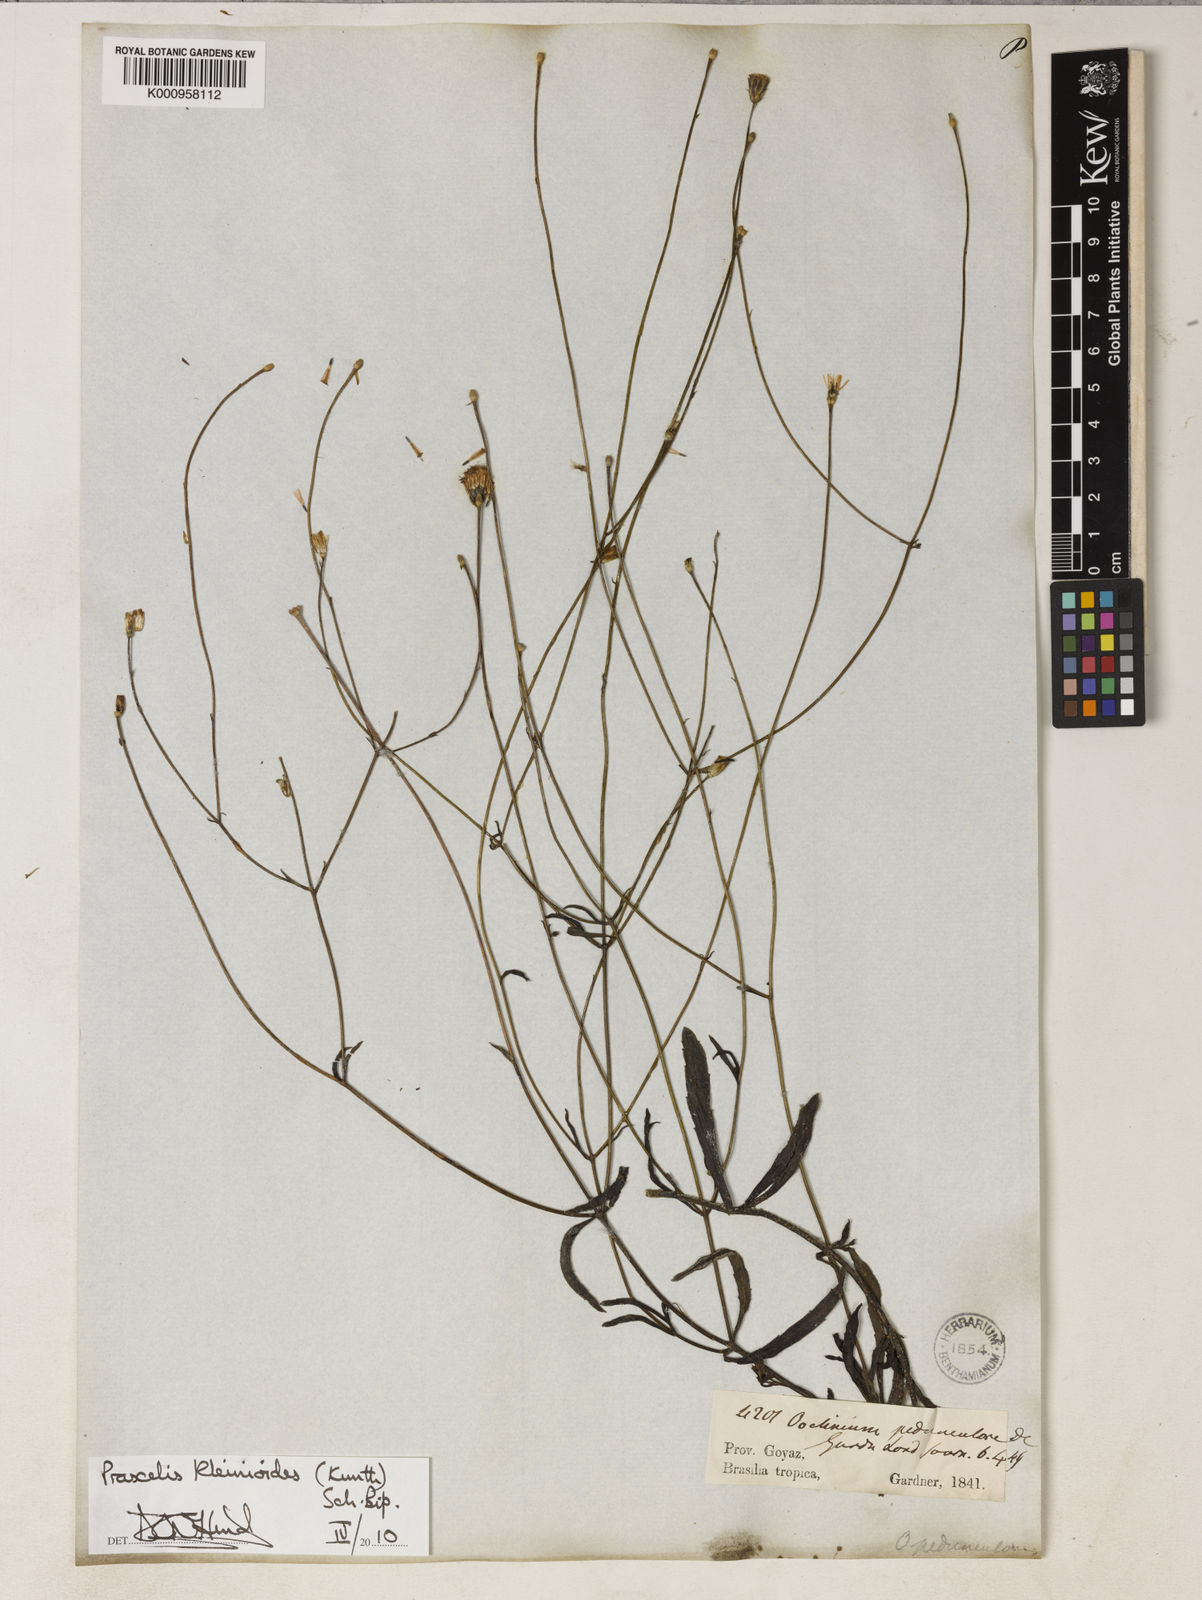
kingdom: Plantae
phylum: Tracheophyta
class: Magnoliopsida
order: Asterales
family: Asteraceae
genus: Praxelis
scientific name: Praxelis kleinioides
